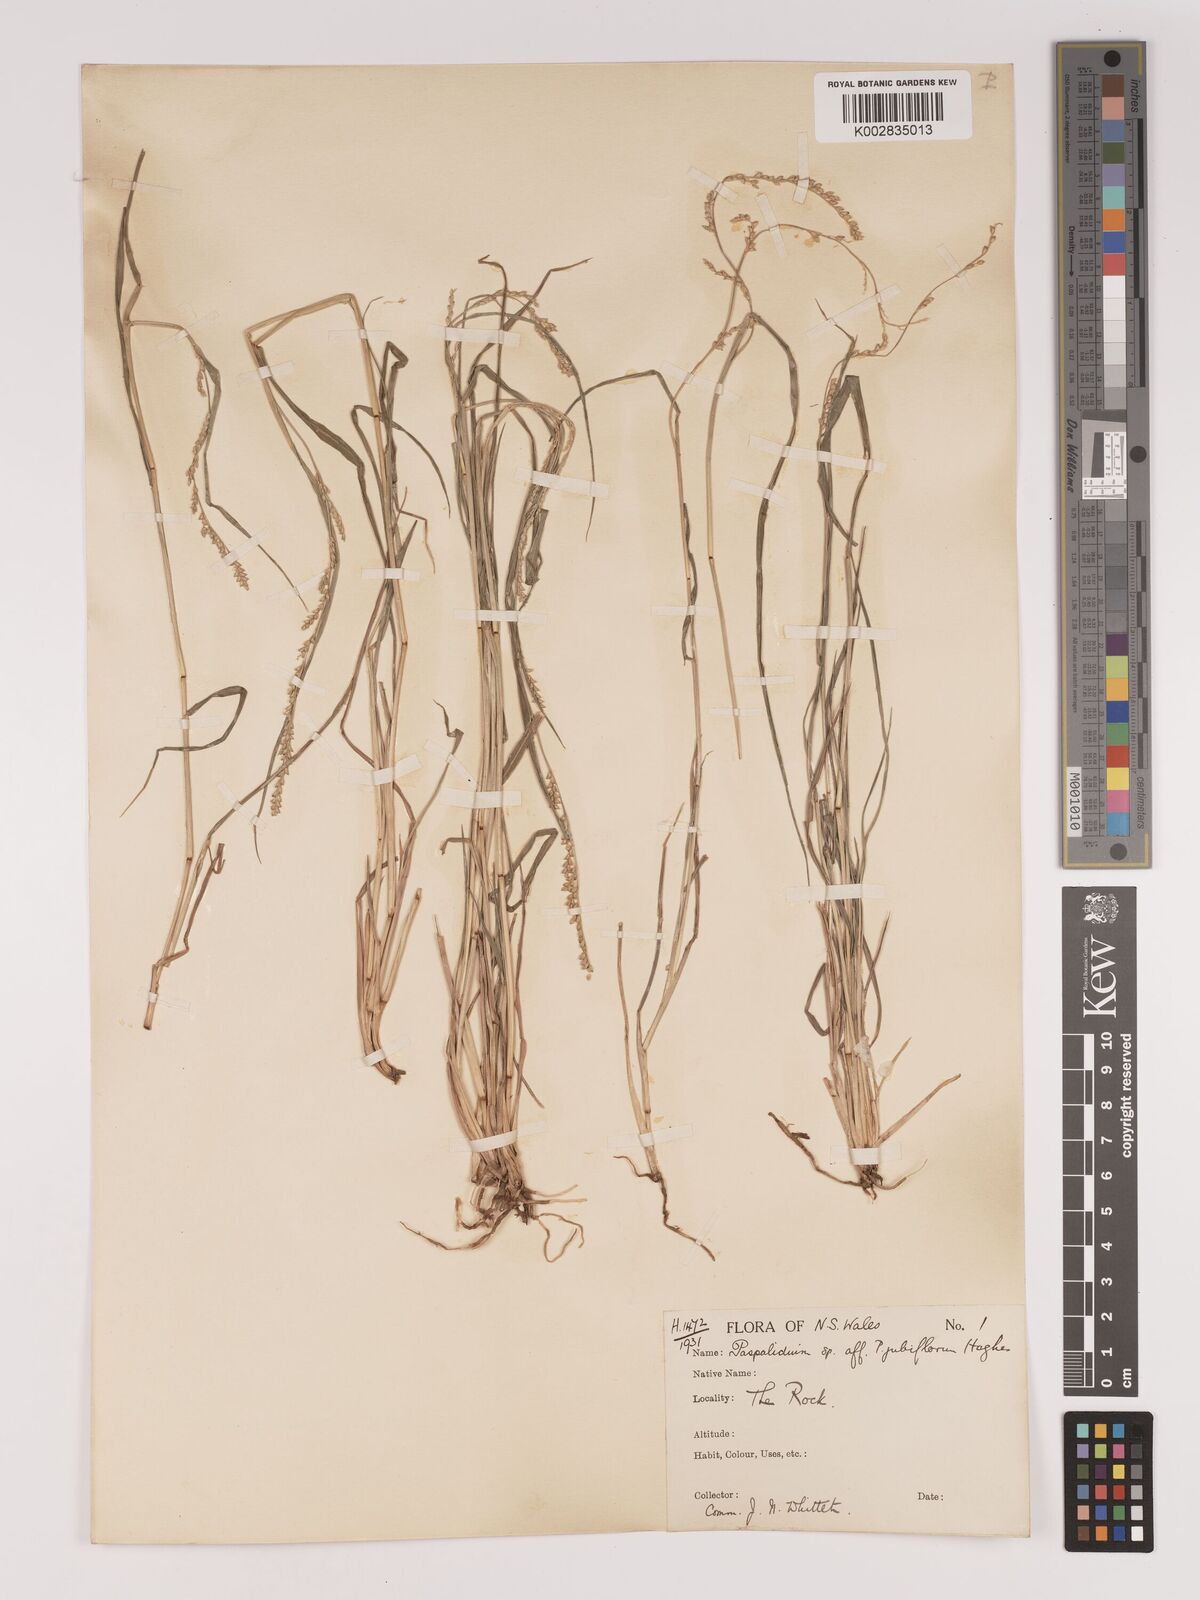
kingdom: Plantae
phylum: Tracheophyta
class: Liliopsida
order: Poales
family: Poaceae
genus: Setaria
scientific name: Setaria
